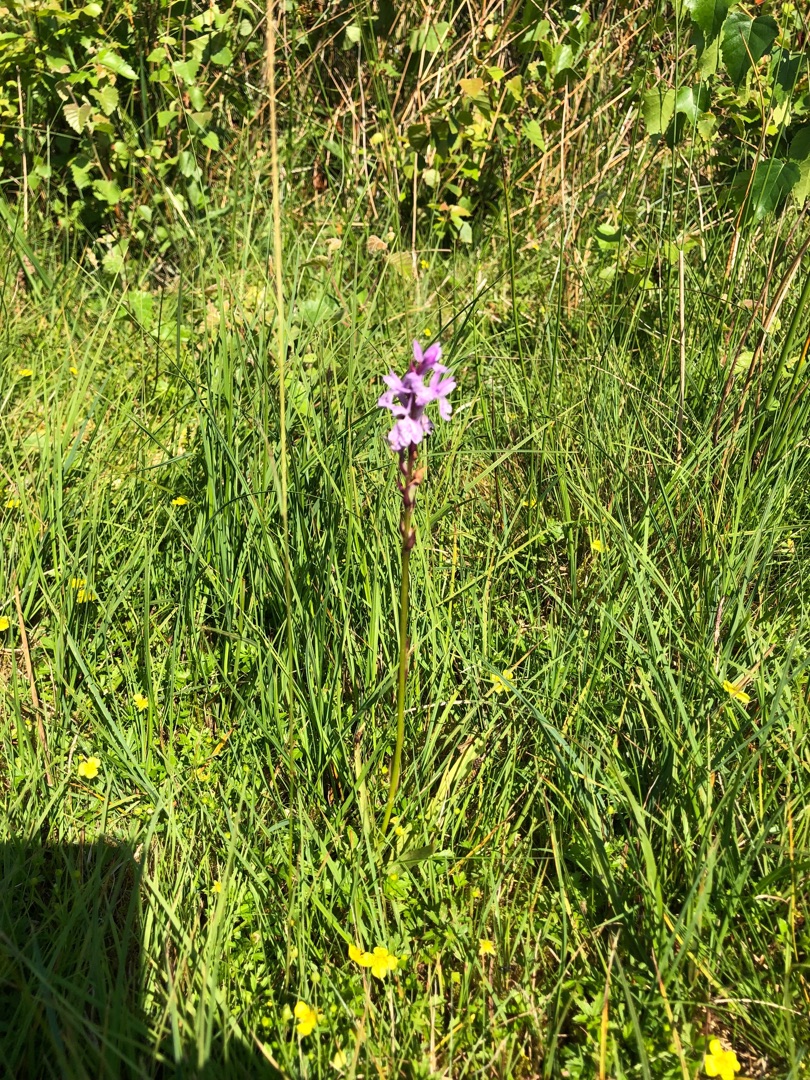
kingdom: Plantae
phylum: Tracheophyta
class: Liliopsida
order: Asparagales
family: Orchidaceae
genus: Dactylorhiza
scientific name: Dactylorhiza maculata
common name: Plettet gøgeurt
